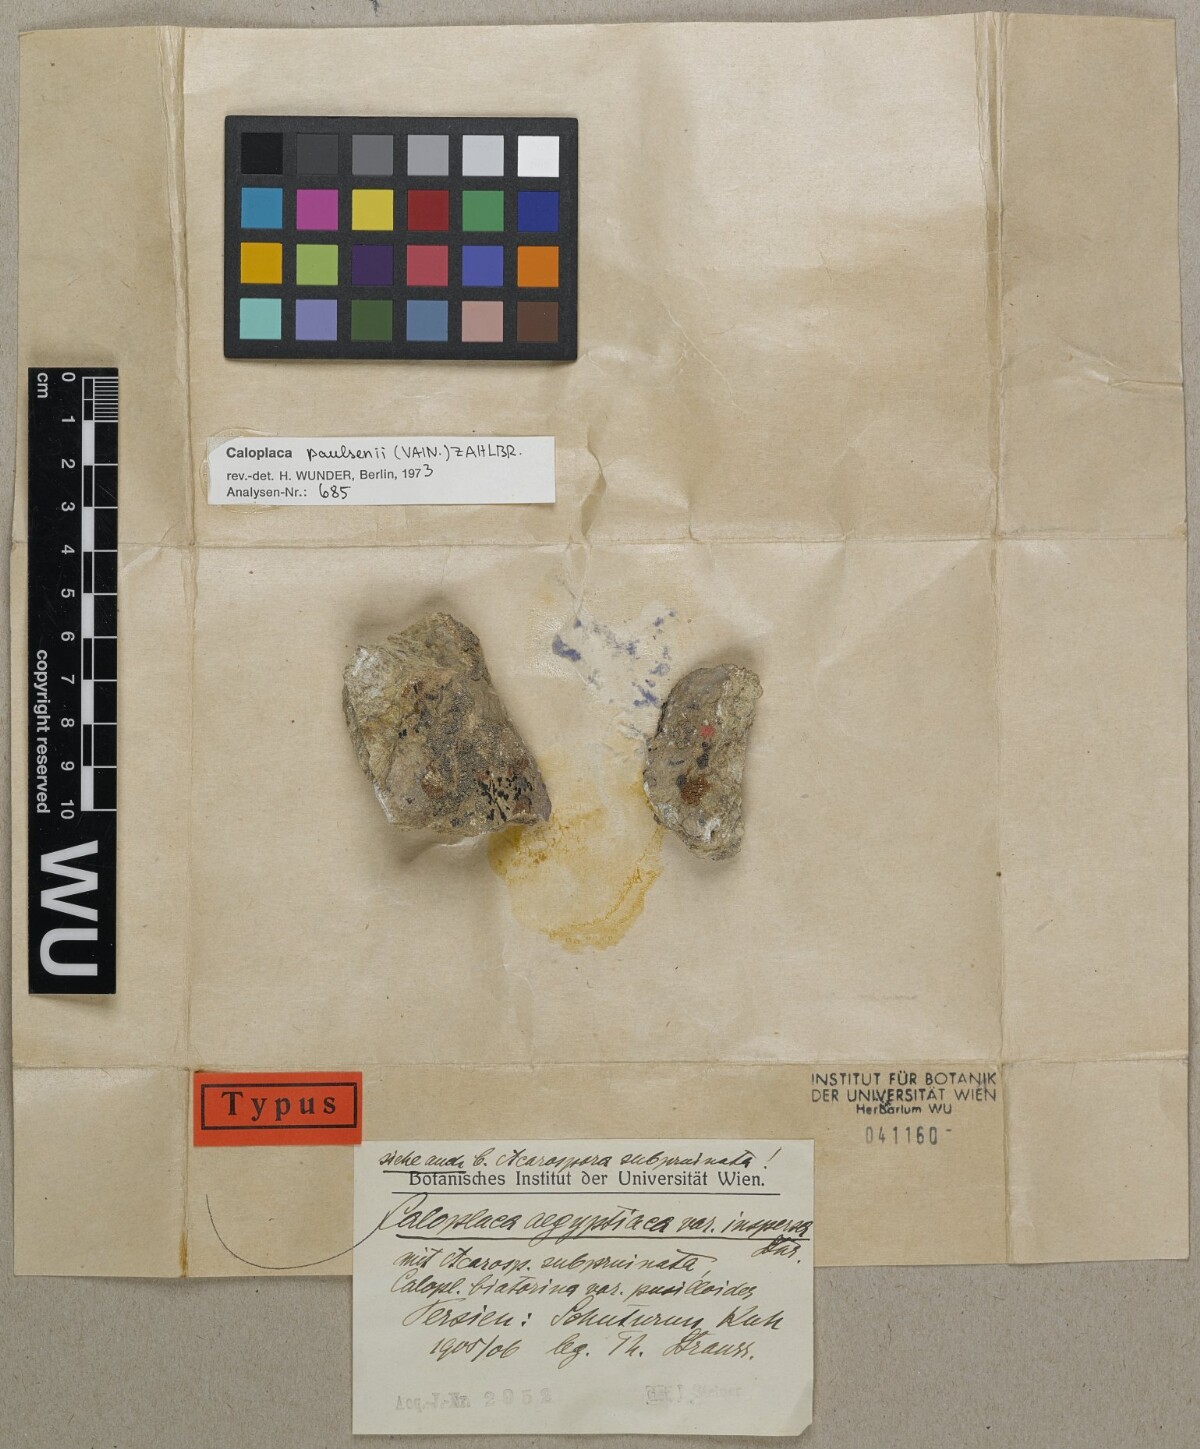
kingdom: Fungi
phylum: Ascomycota
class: Lecanoromycetes
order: Teloschistales
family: Teloschistaceae
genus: Caloplaca
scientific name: Caloplaca
